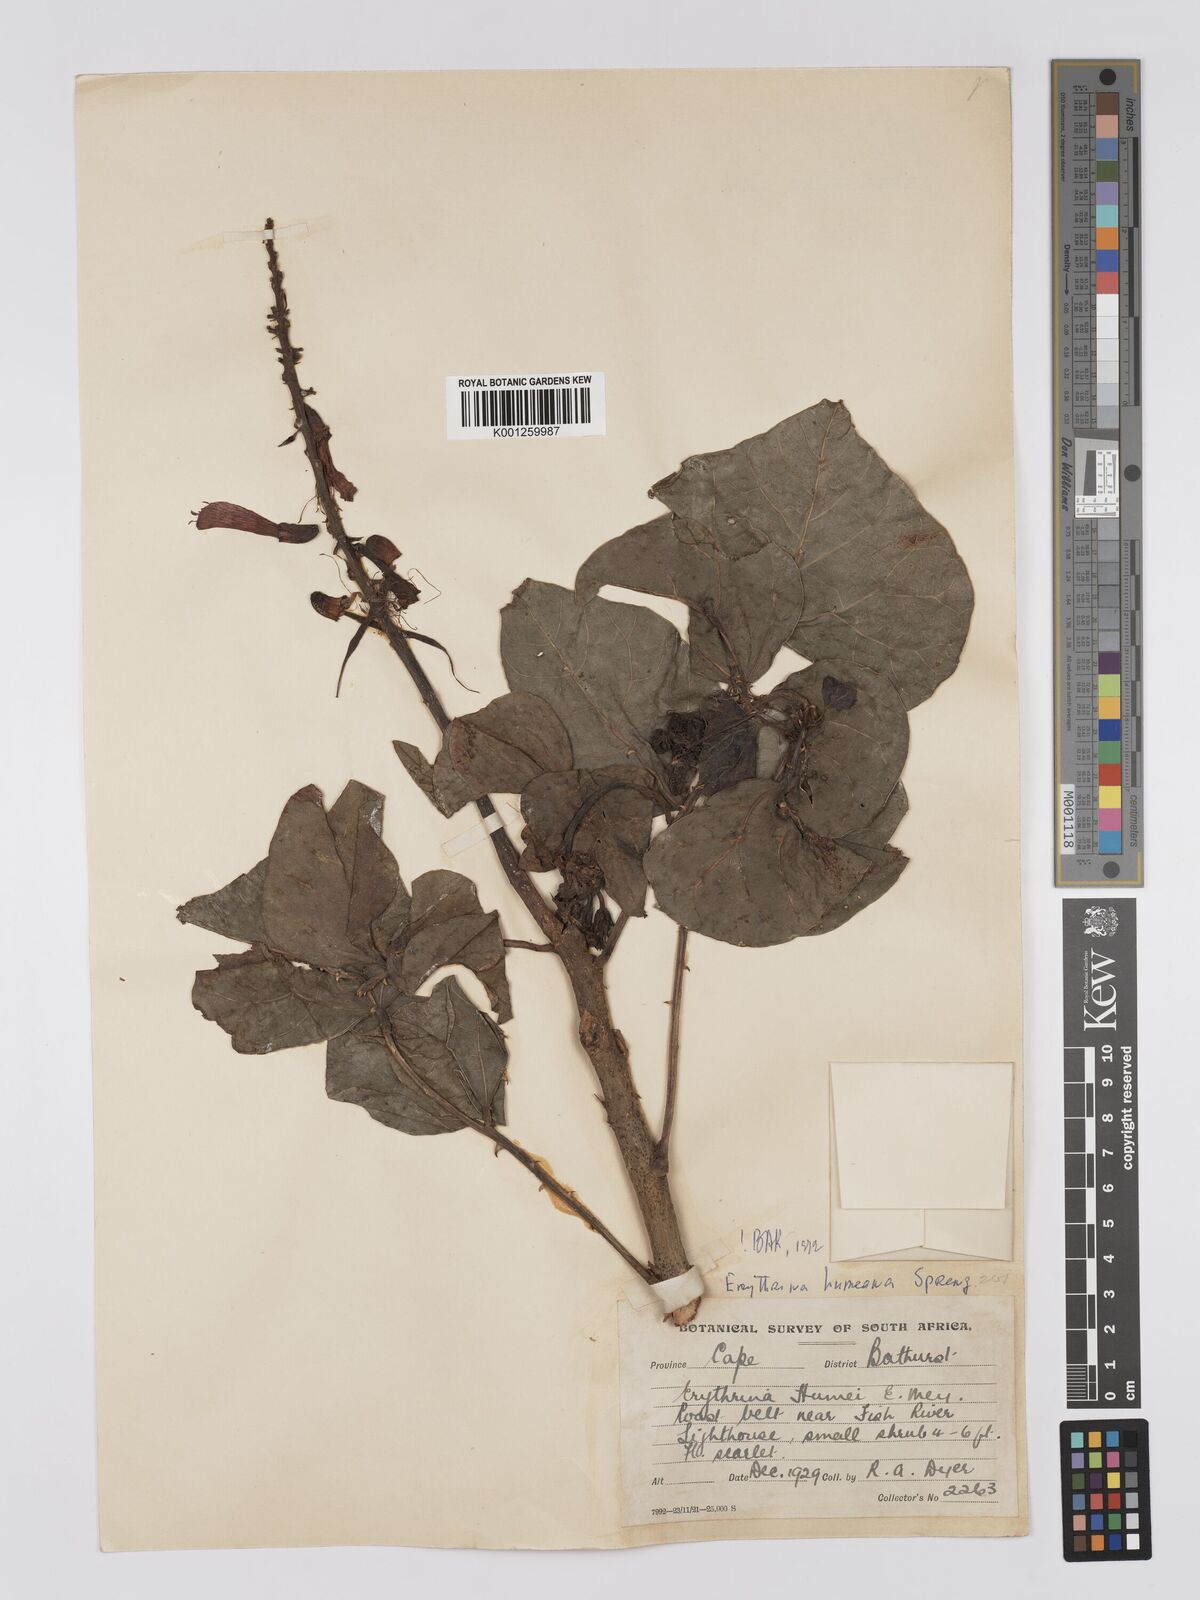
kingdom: Plantae
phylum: Tracheophyta
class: Magnoliopsida
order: Fabales
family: Fabaceae
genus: Erythrina
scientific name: Erythrina humeana
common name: Dwarf coral tree
